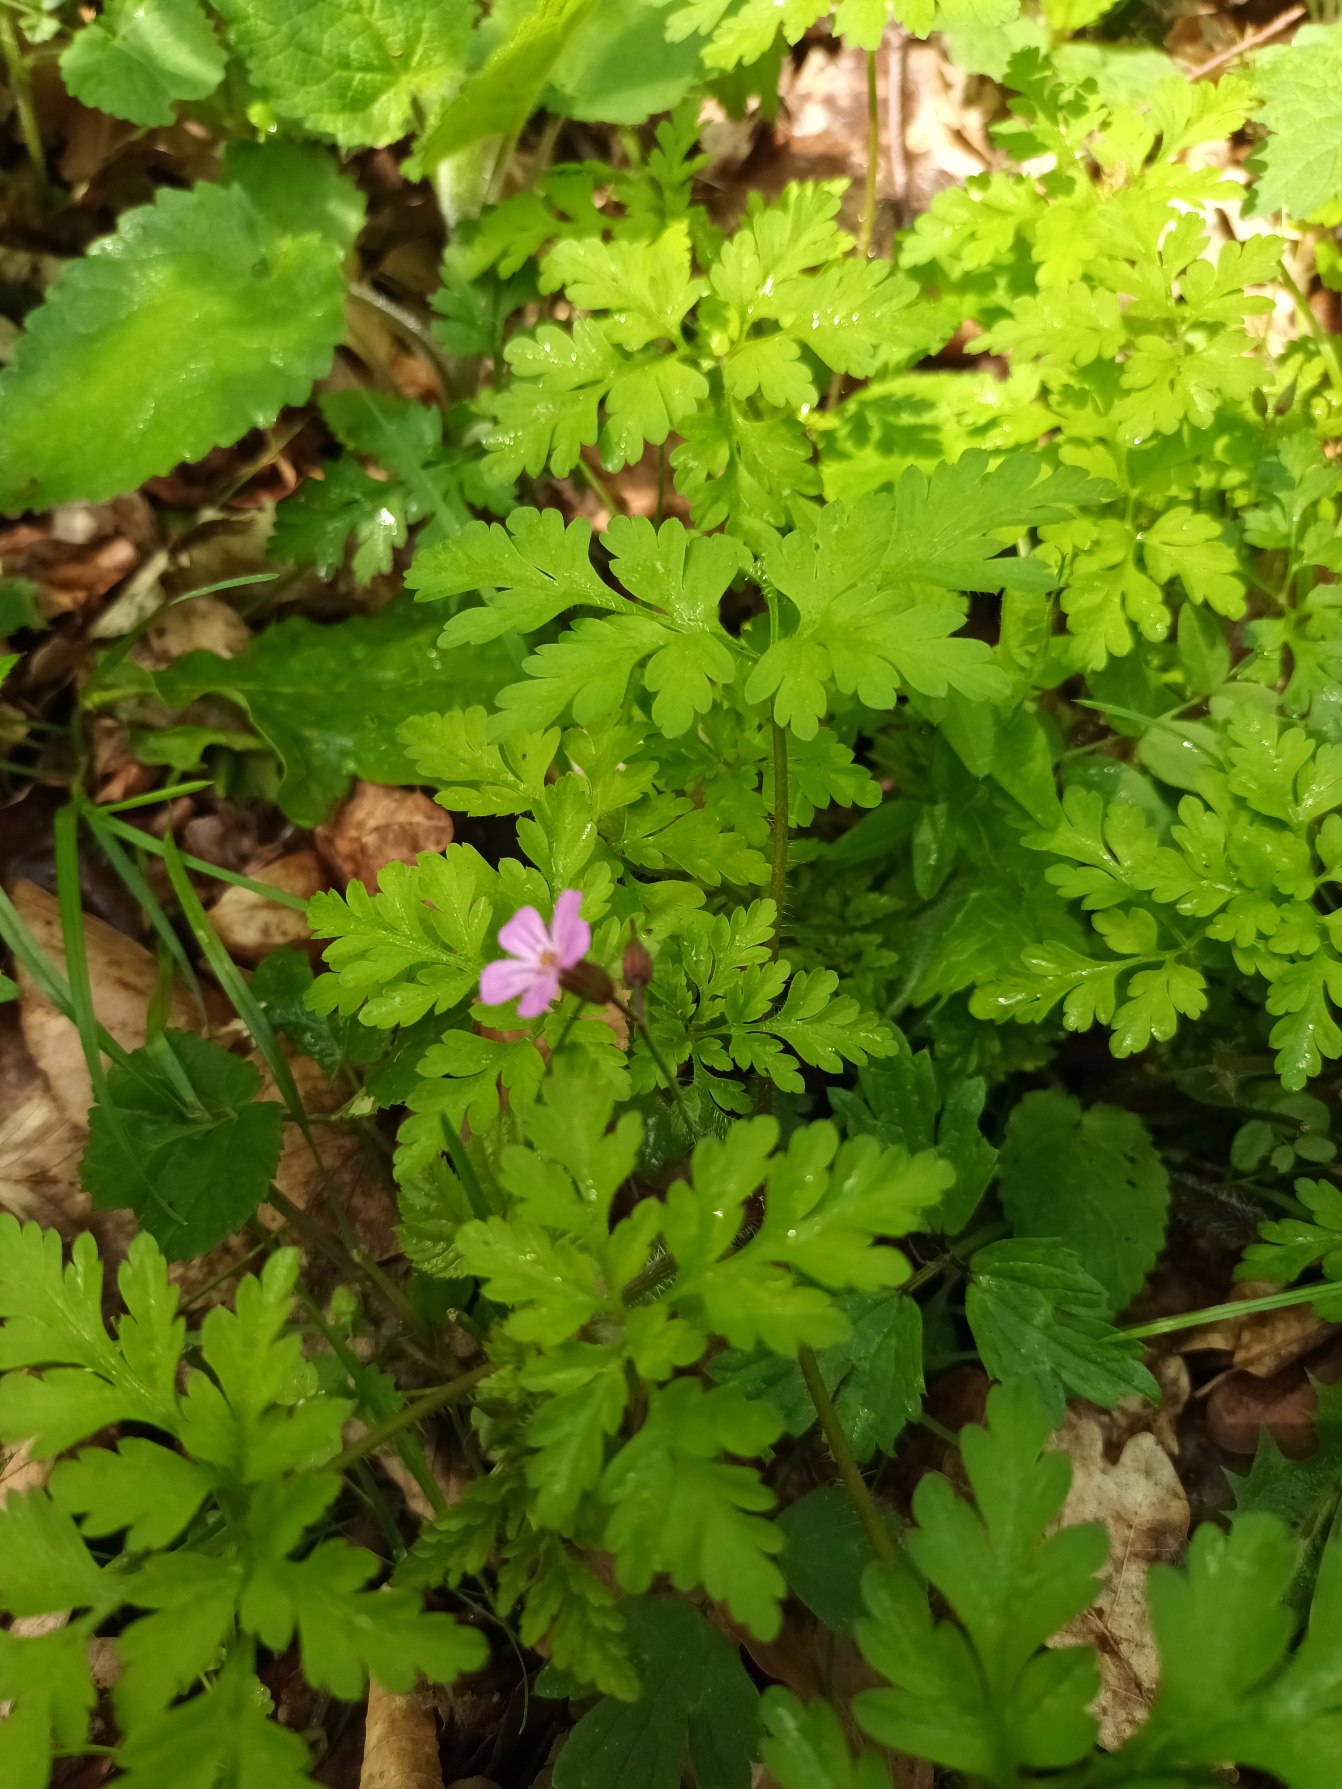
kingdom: Plantae
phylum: Tracheophyta
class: Magnoliopsida
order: Geraniales
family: Geraniaceae
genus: Geranium
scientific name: Geranium robertianum
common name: Stinkende storkenæb
